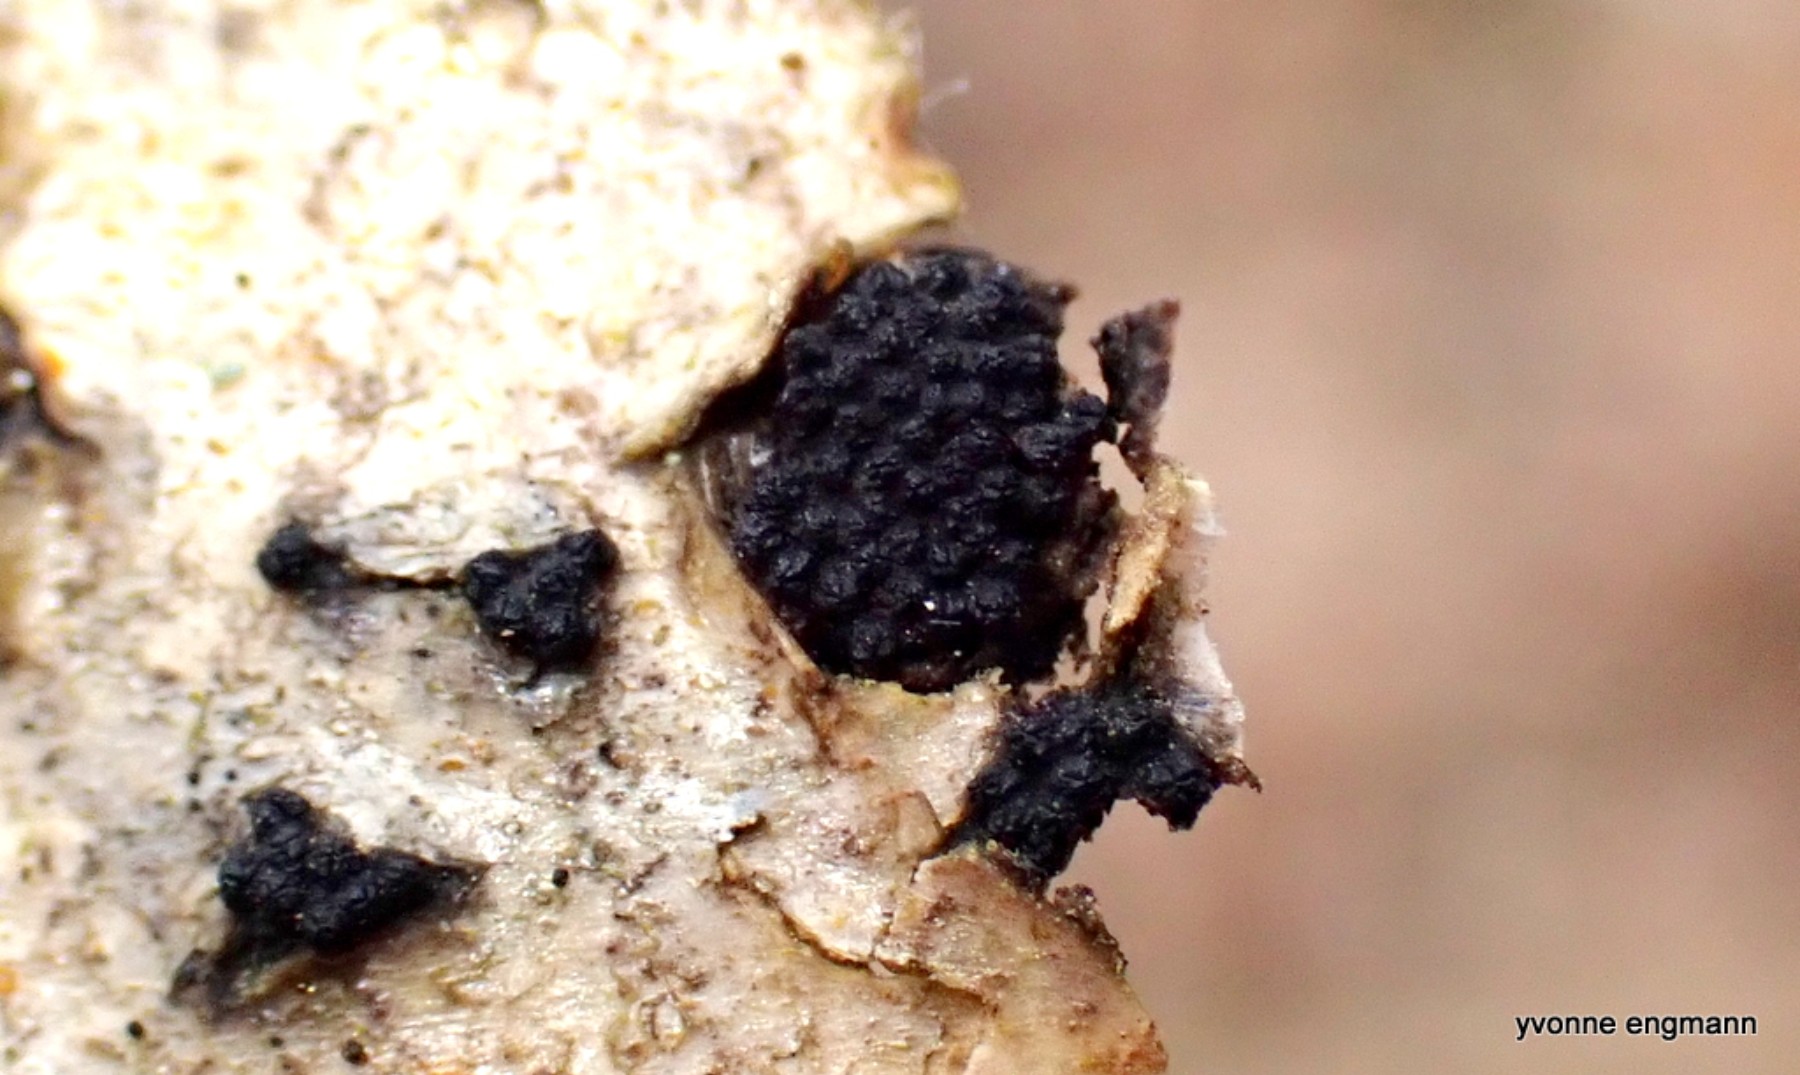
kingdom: Fungi
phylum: Ascomycota
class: Sordariomycetes
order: Xylariales
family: Diatrypaceae
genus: Eutypella
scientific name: Eutypella sorbi
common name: rønne-kulskorpe
